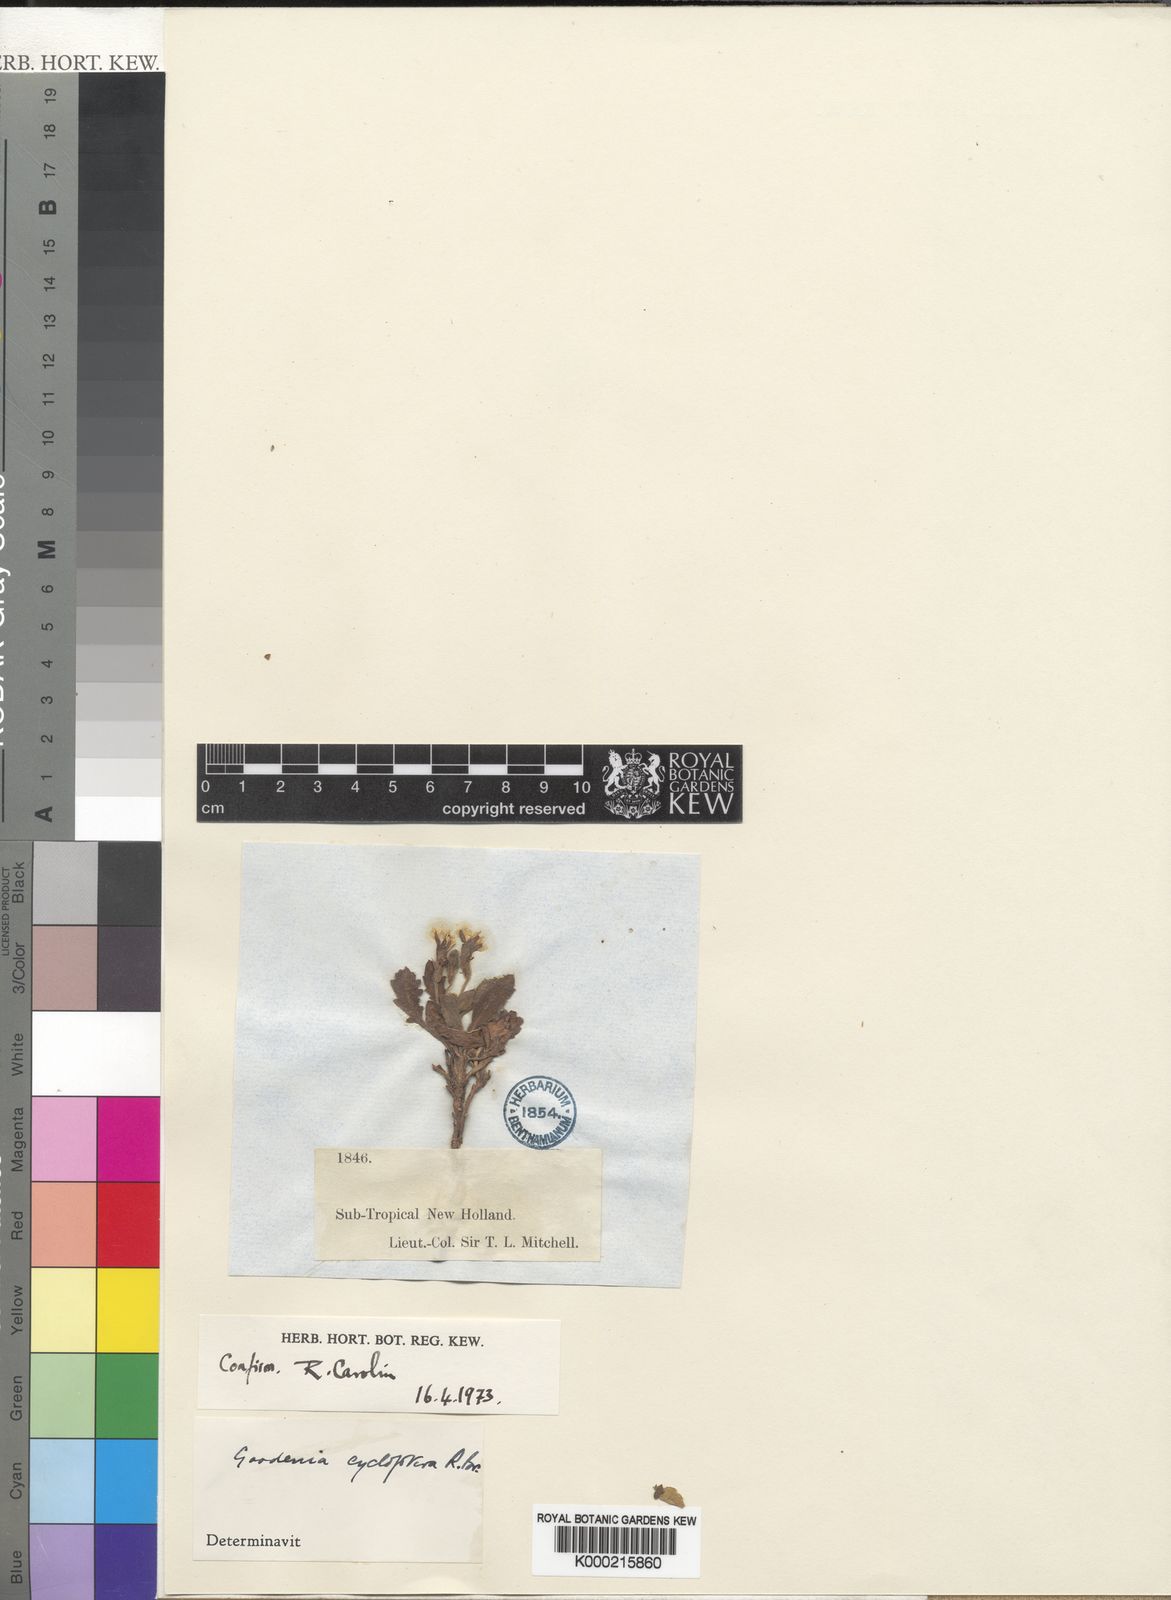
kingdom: Plantae
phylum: Tracheophyta
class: Magnoliopsida
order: Asterales
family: Goodeniaceae
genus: Goodenia
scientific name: Goodenia cycloptera
